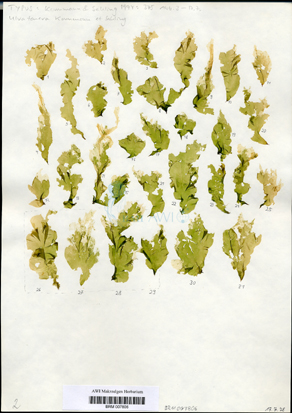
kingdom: Plantae
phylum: Chlorophyta
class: Ulvophyceae
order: Ulvales
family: Ulvaceae
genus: Ulva
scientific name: Ulva tenera
